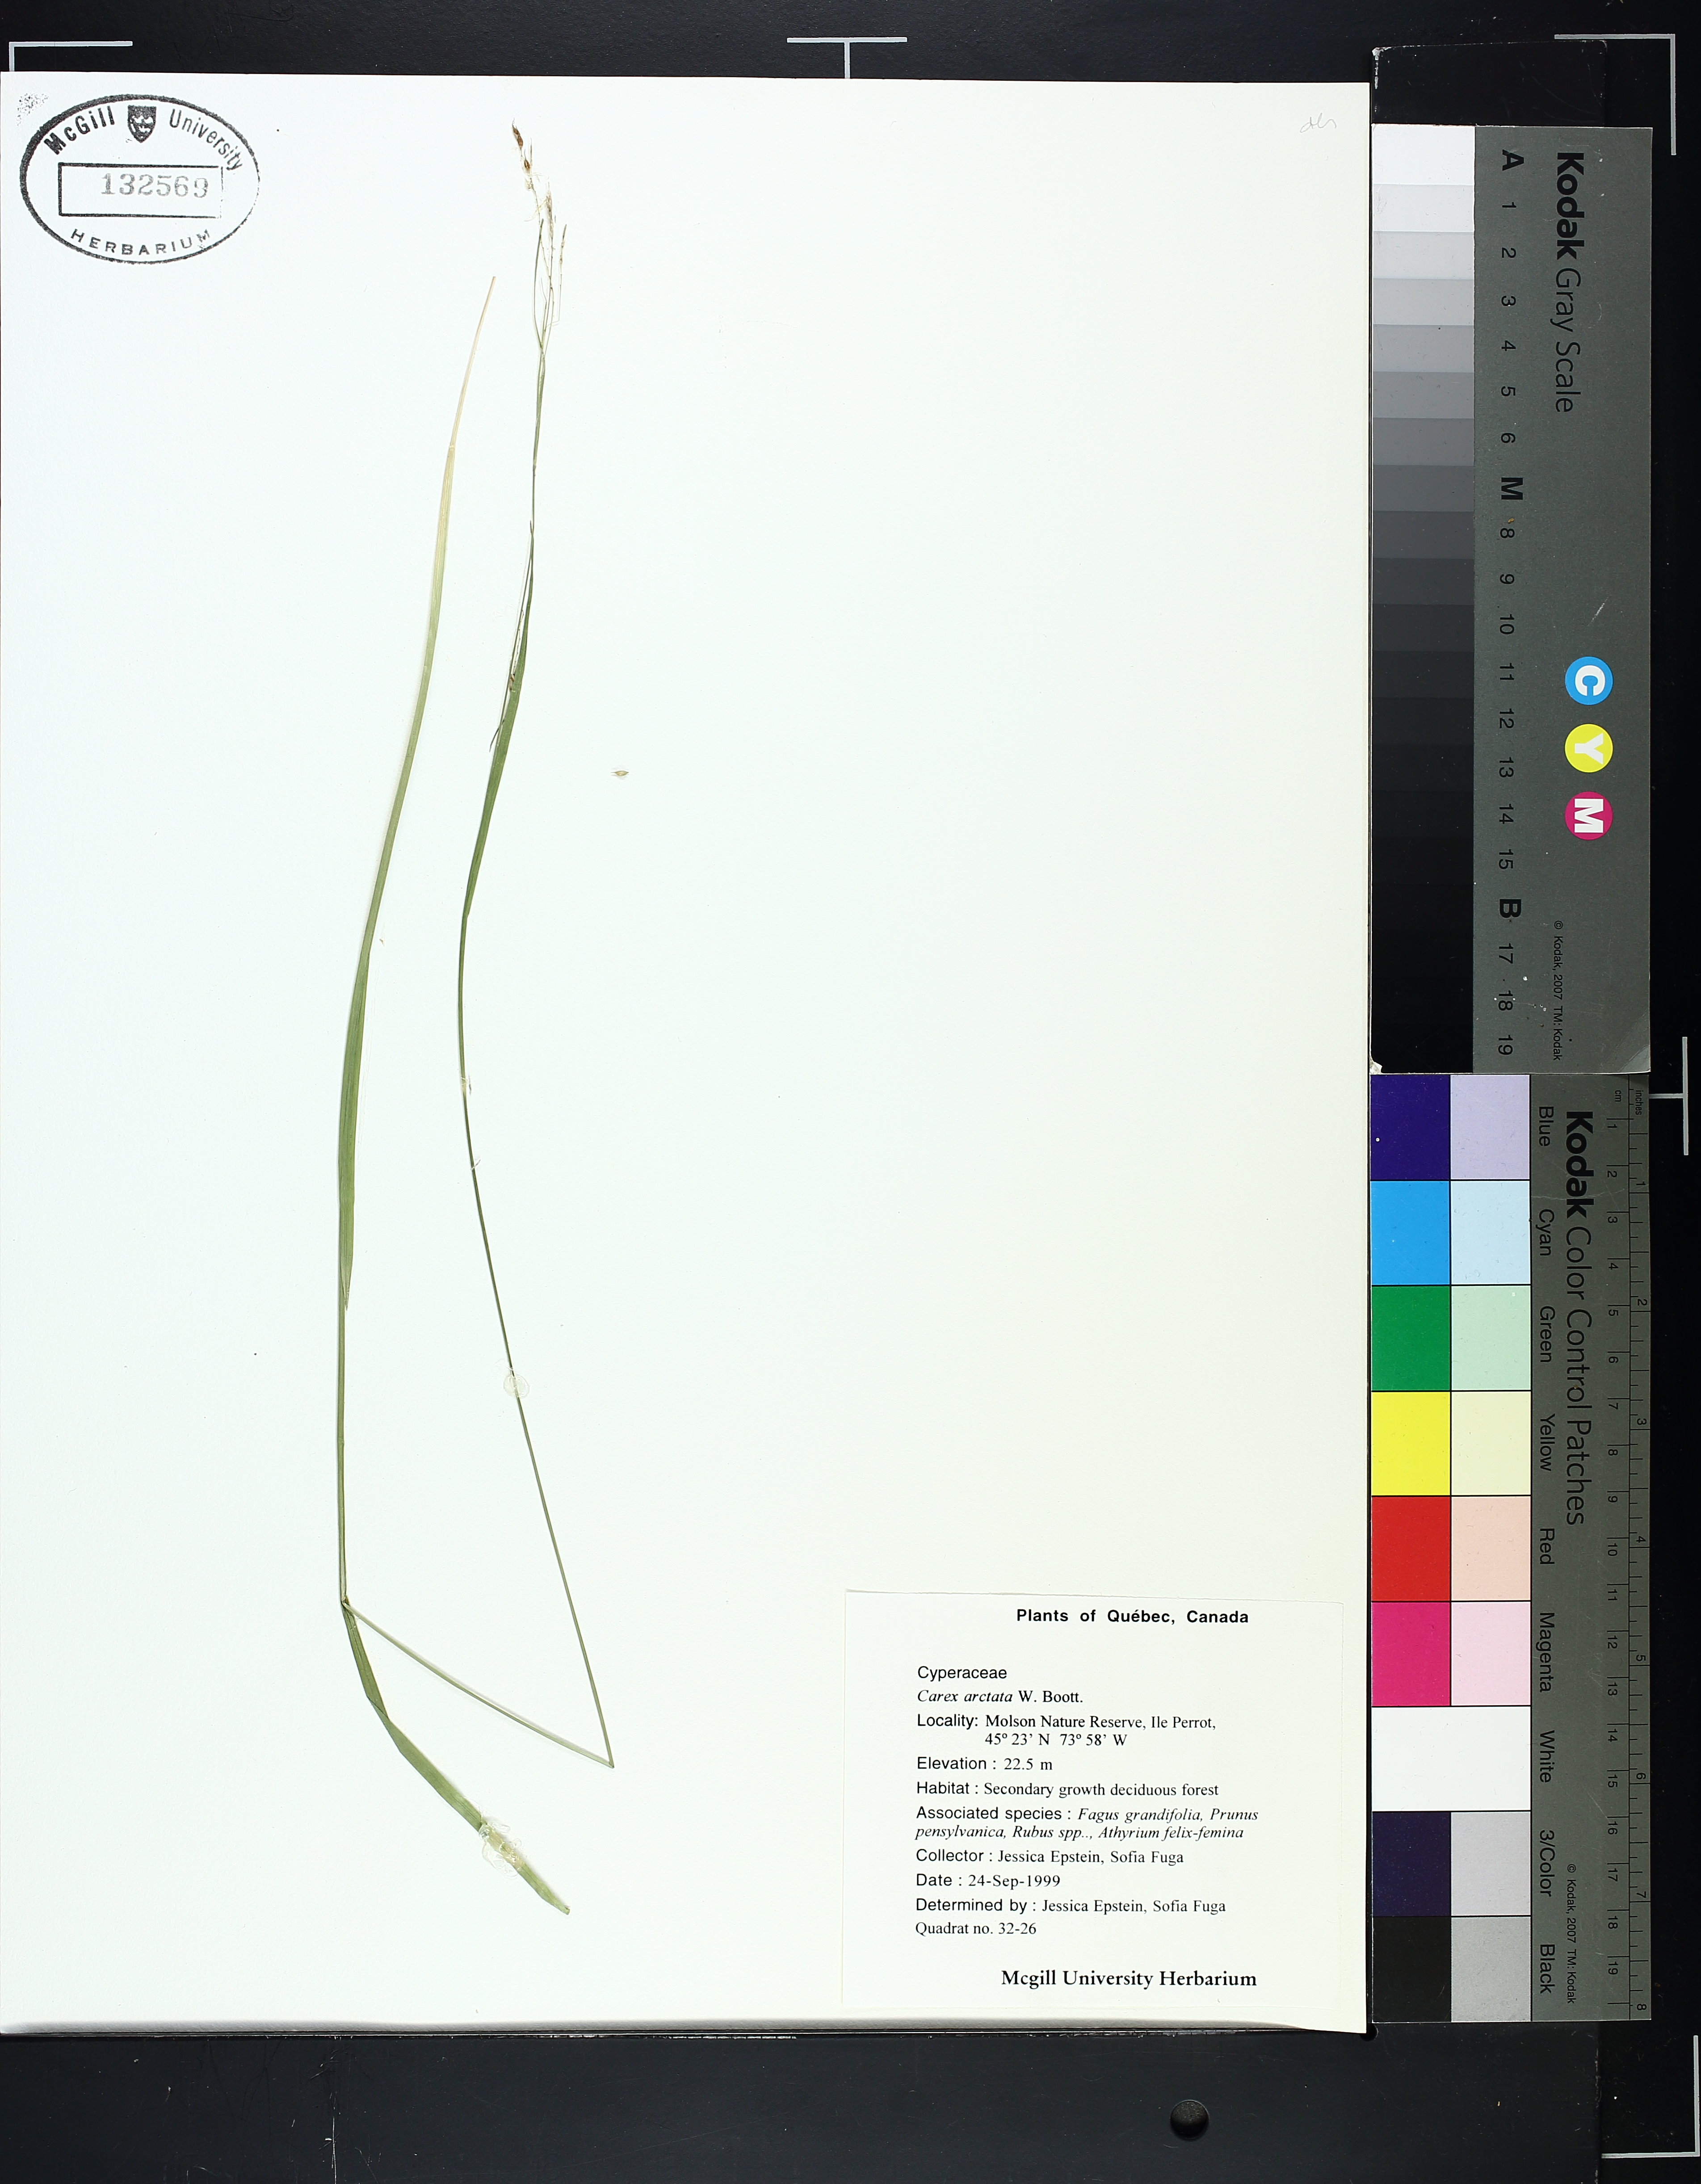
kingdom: Plantae
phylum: Tracheophyta
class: Liliopsida
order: Poales
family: Cyperaceae
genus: Carex
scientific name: Carex arctata
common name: Black sedge
